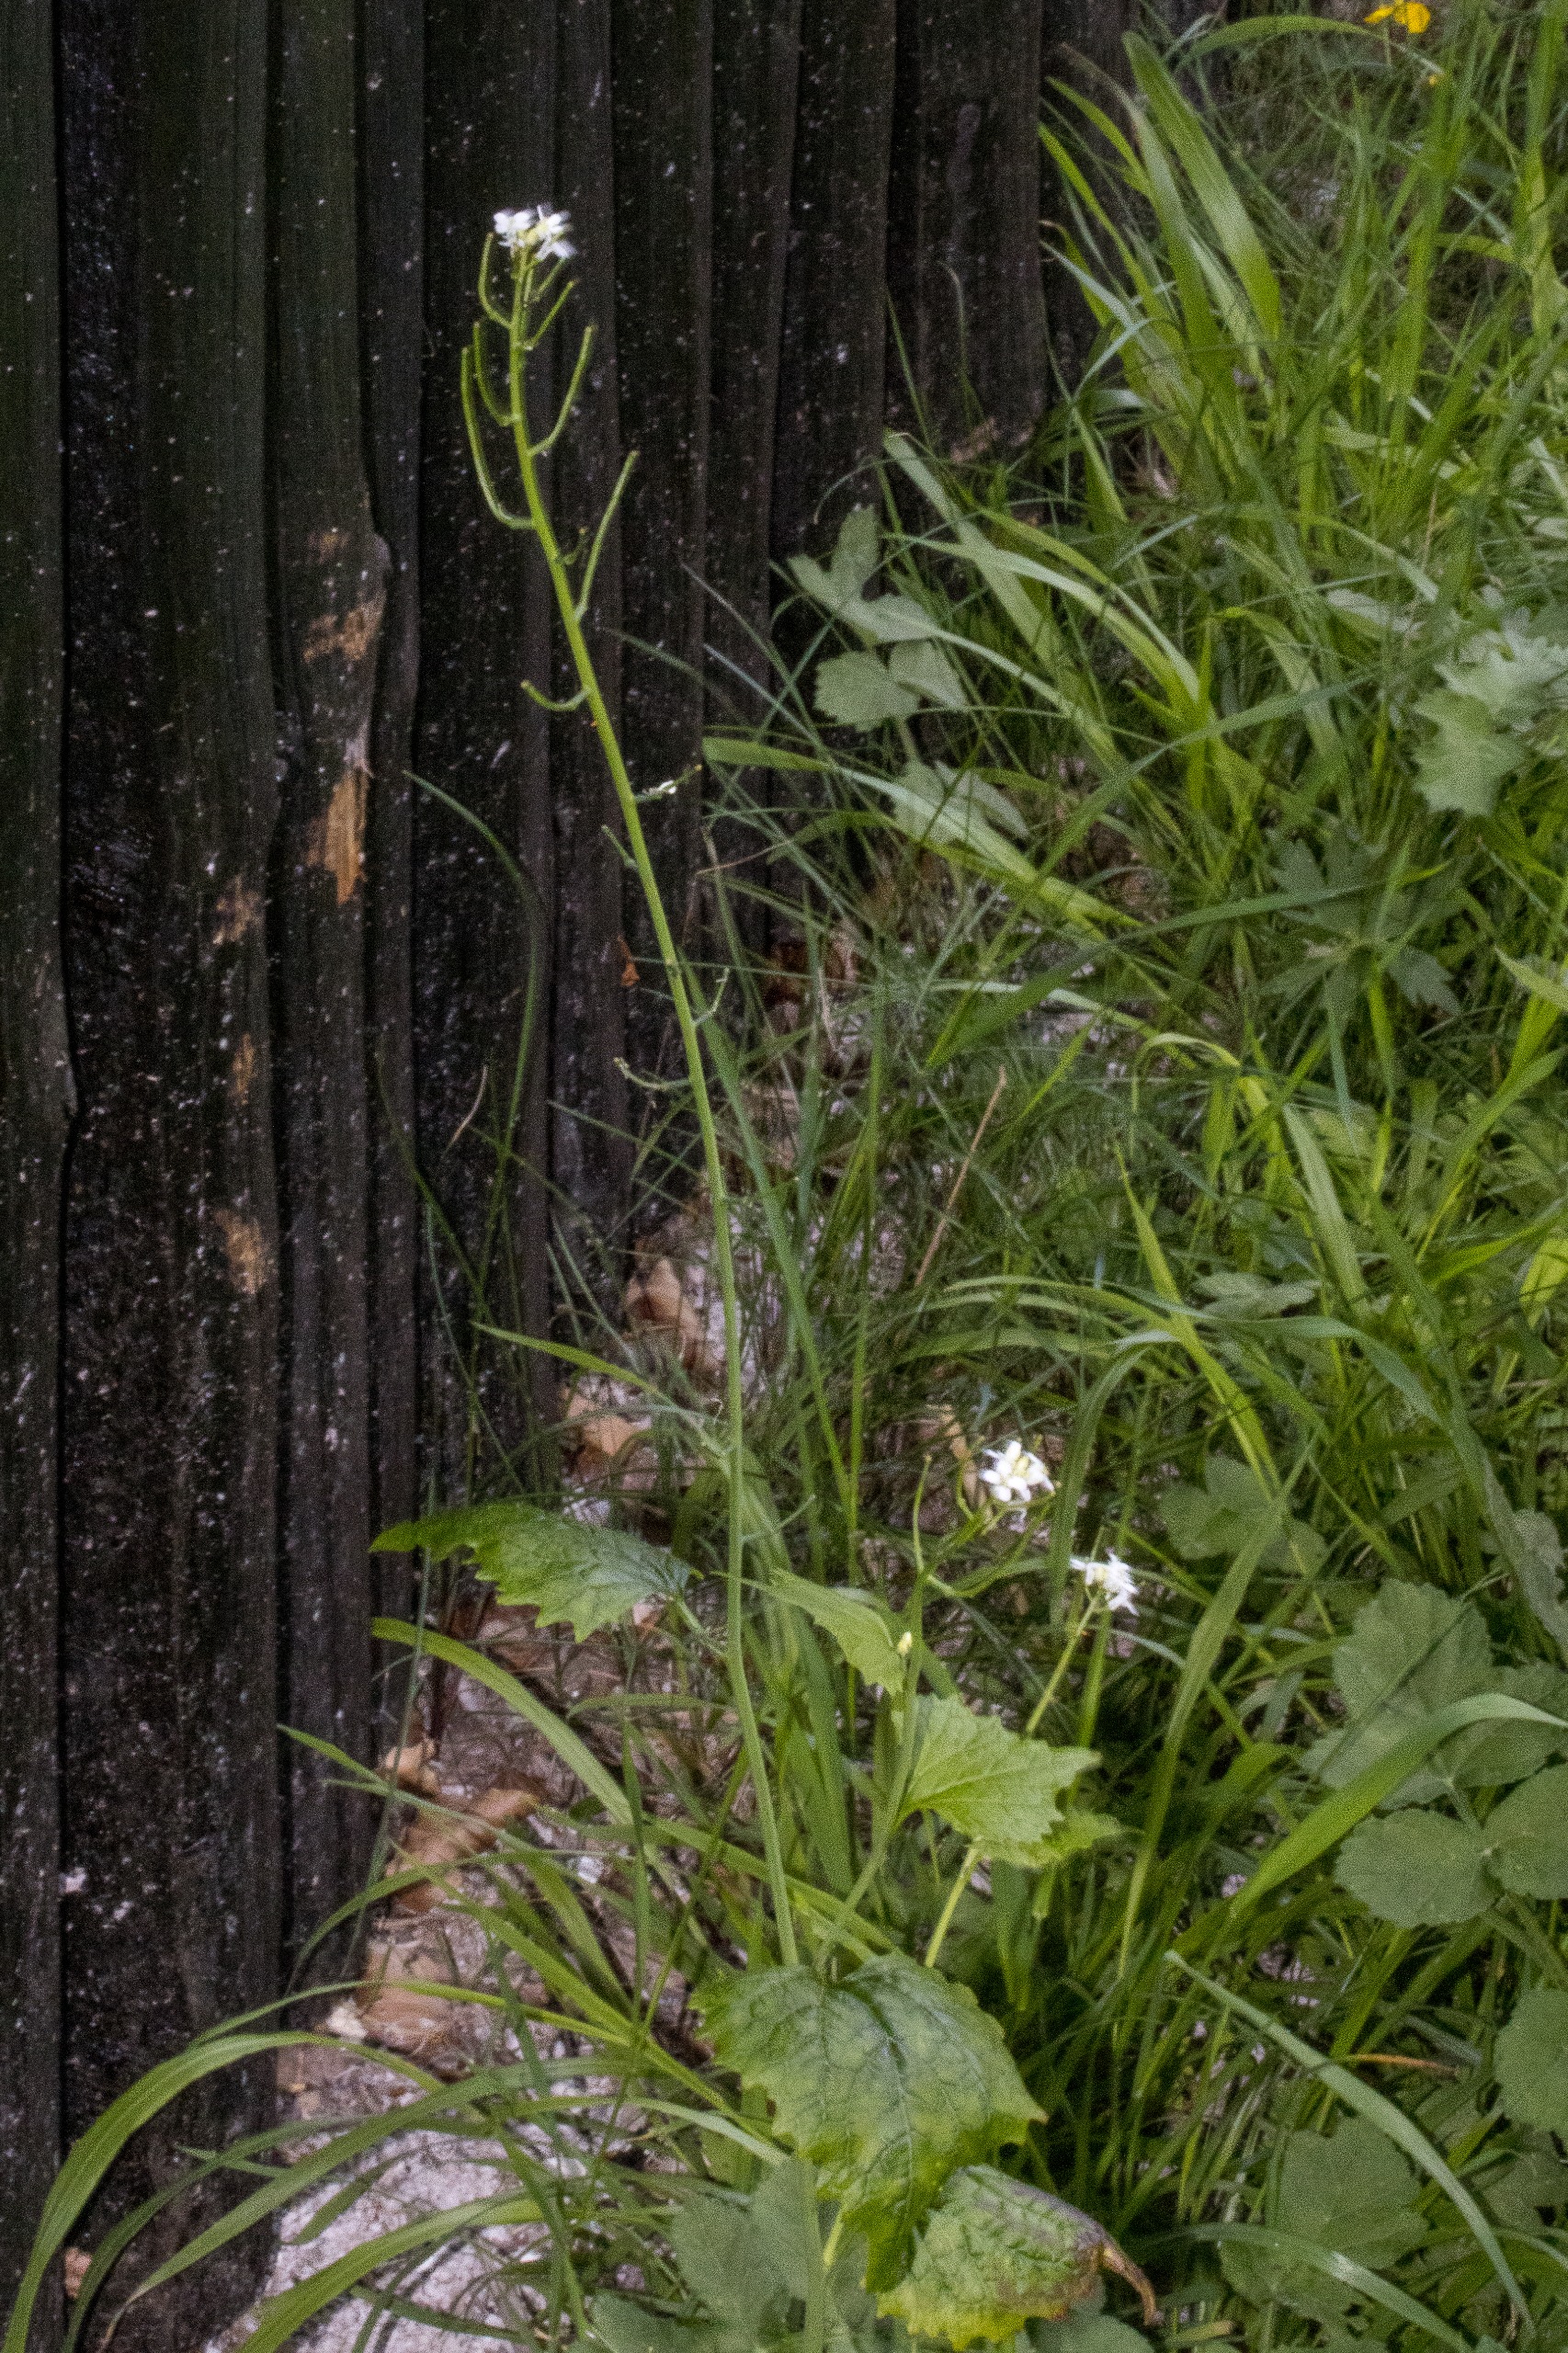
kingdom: Plantae
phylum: Tracheophyta
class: Magnoliopsida
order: Brassicales
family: Brassicaceae
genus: Alliaria
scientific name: Alliaria petiolata
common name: Løgkarse
